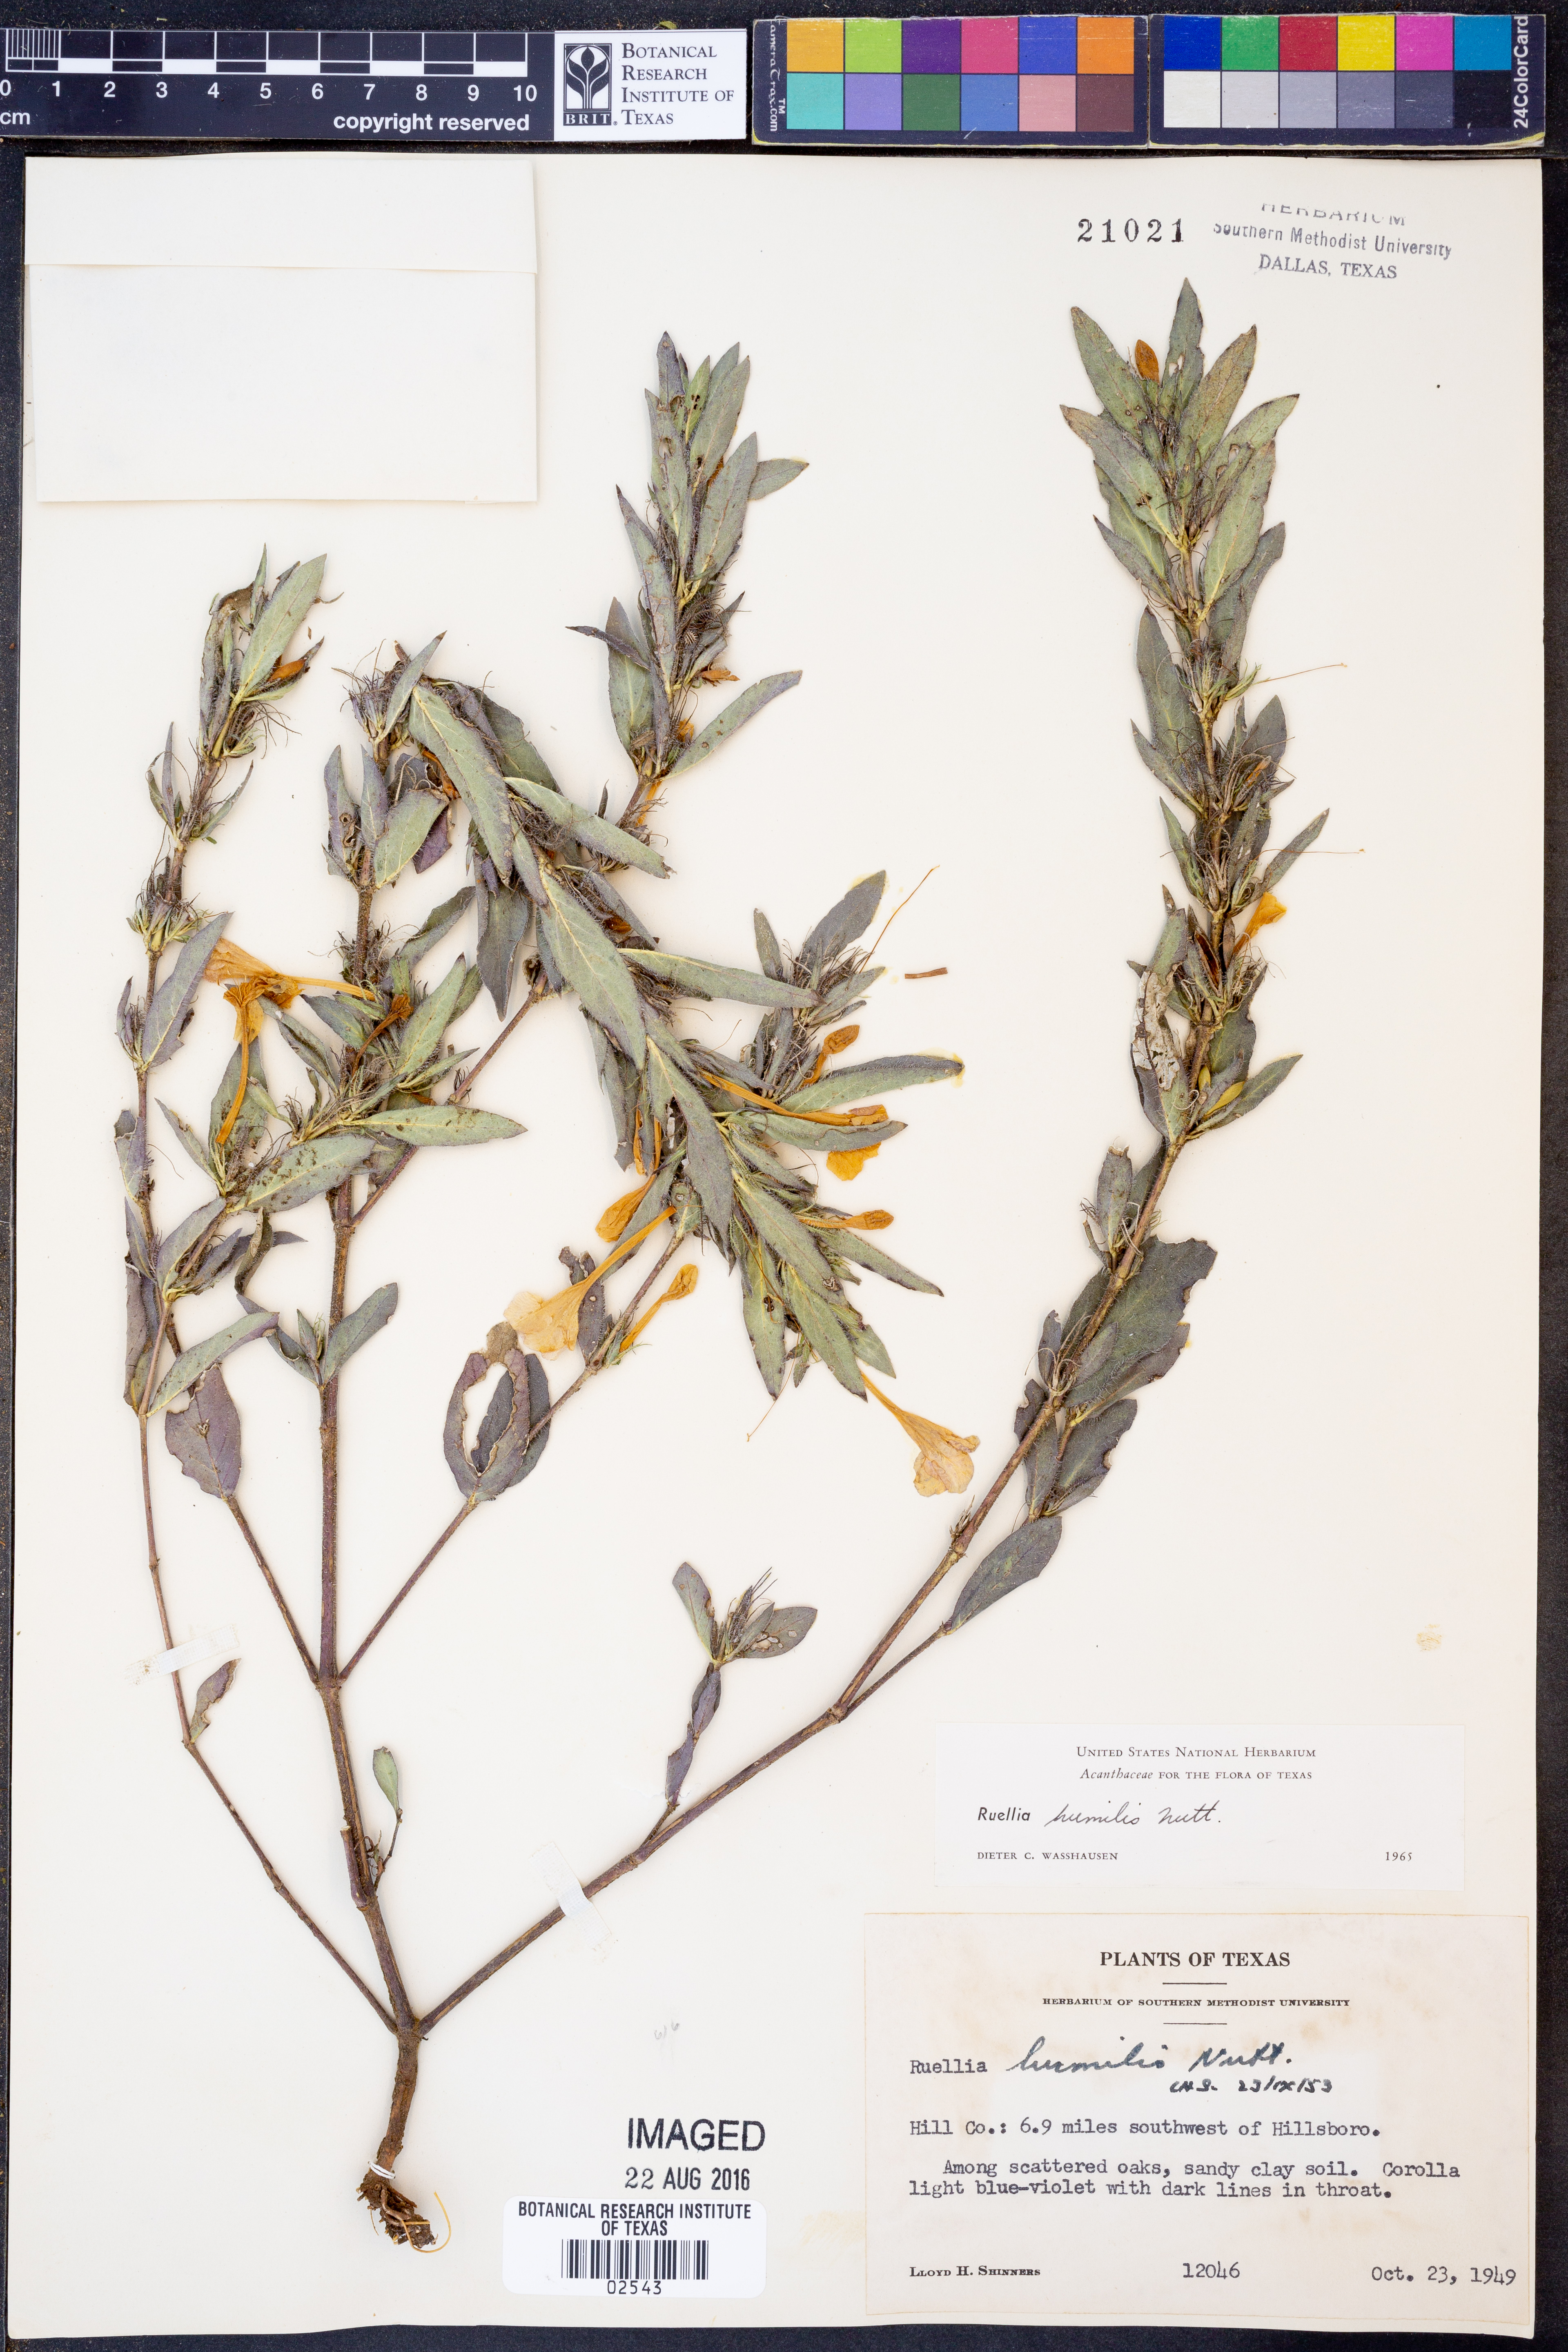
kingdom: Plantae
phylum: Tracheophyta
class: Magnoliopsida
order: Lamiales
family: Acanthaceae
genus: Ruellia
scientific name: Ruellia humilis
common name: Fringe-leaf ruellia
